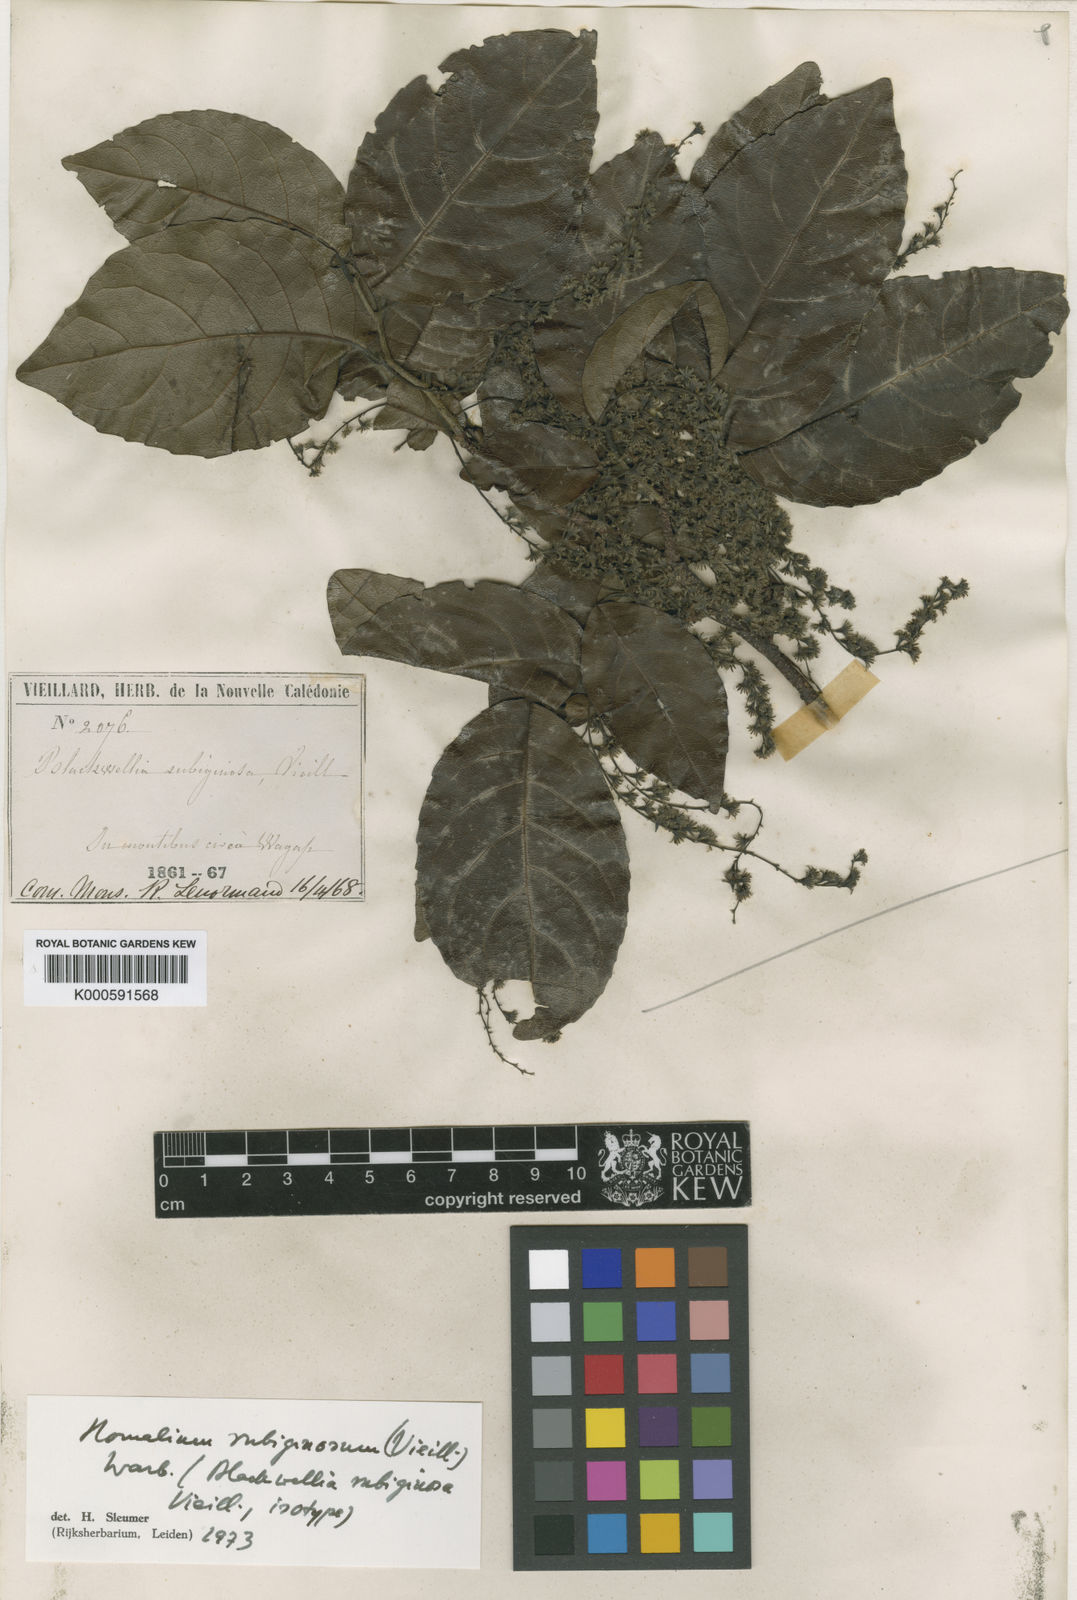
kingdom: Plantae
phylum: Tracheophyta
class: Magnoliopsida
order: Malpighiales
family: Salicaceae
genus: Homalium
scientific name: Homalium rubiginosum
